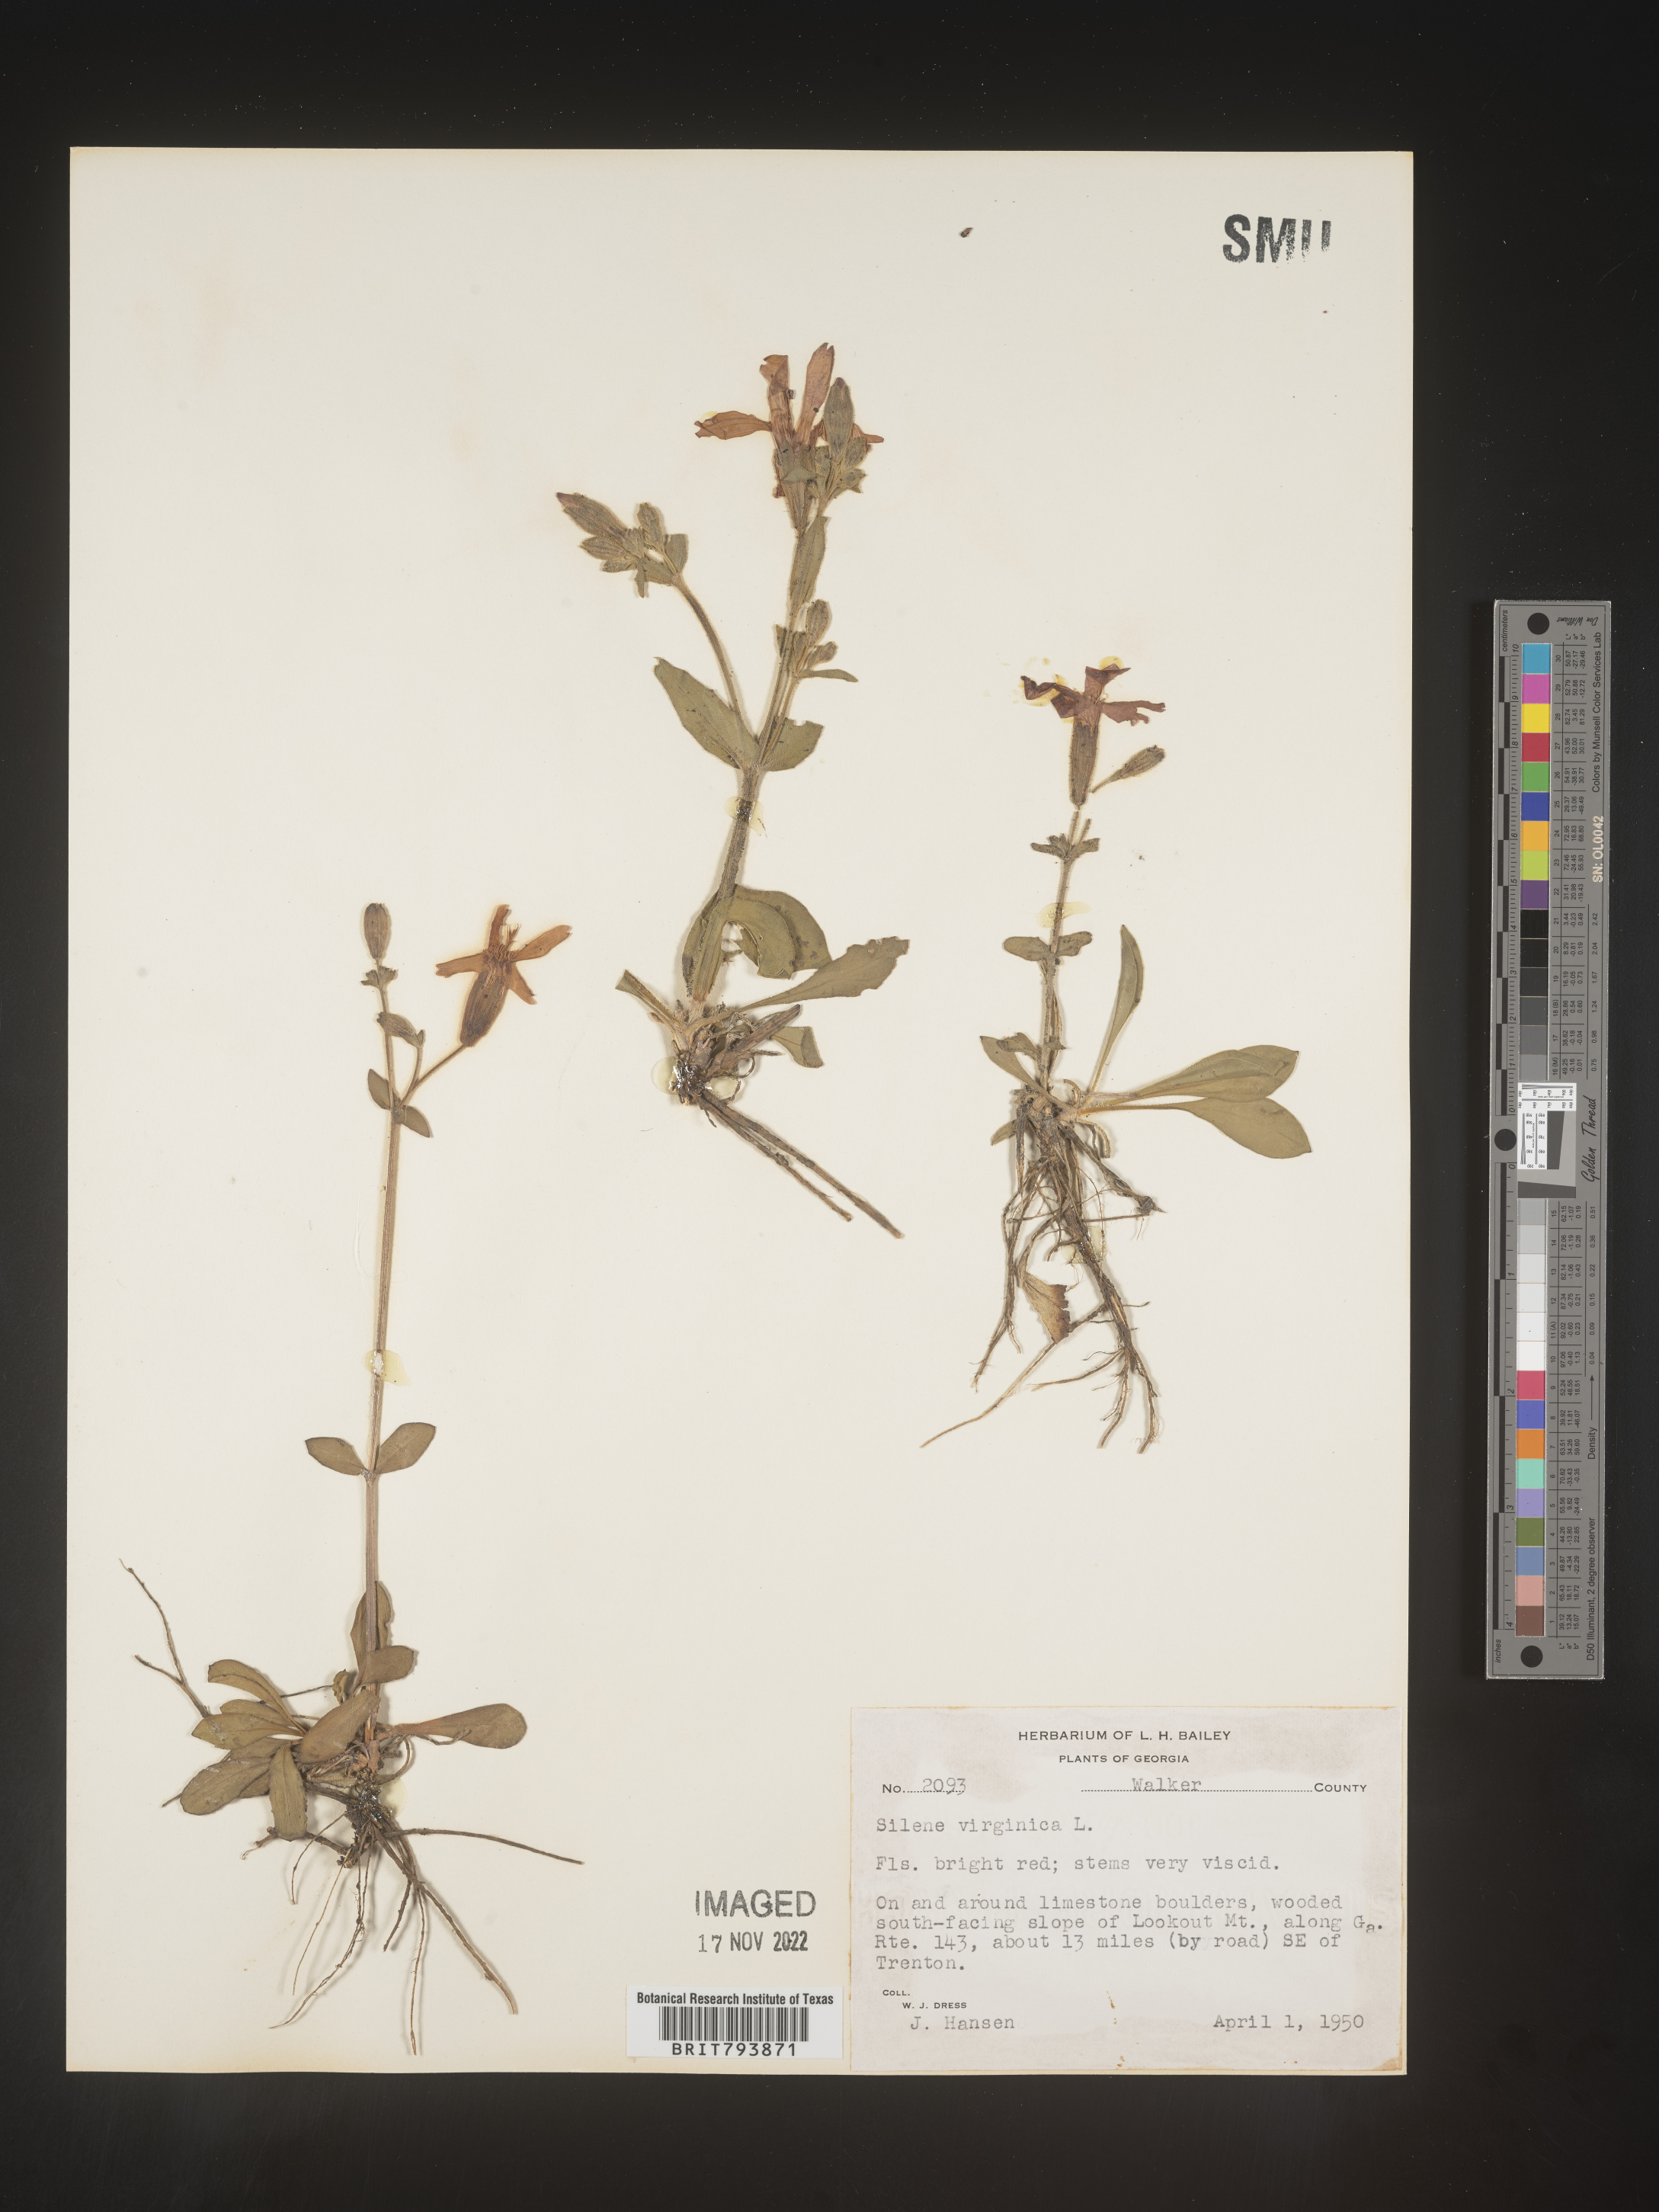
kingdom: Plantae
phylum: Tracheophyta
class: Magnoliopsida
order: Caryophyllales
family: Caryophyllaceae
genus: Silene
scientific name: Silene virginica
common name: Fire-pink
